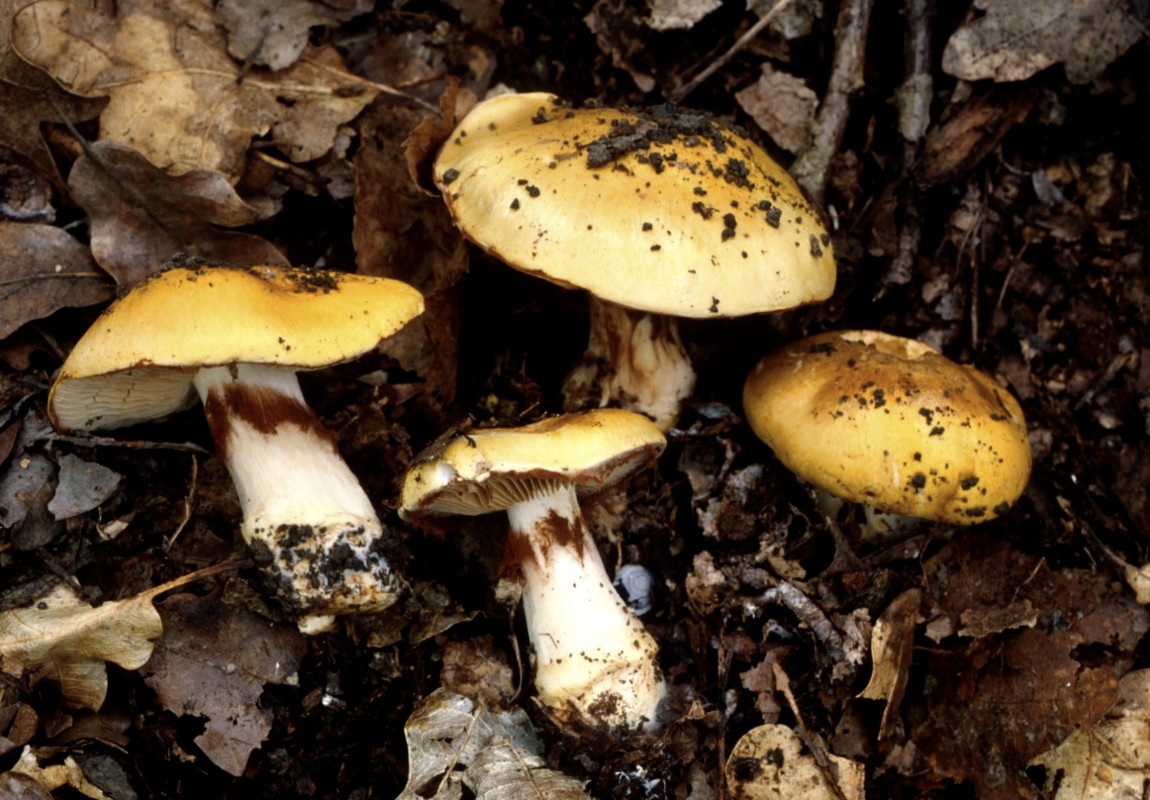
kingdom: Fungi
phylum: Basidiomycota
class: Agaricomycetes
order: Agaricales
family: Cortinariaceae
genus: Phlegmacium
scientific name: Phlegmacium caesiocortinatum
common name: rundsporet slørhat
